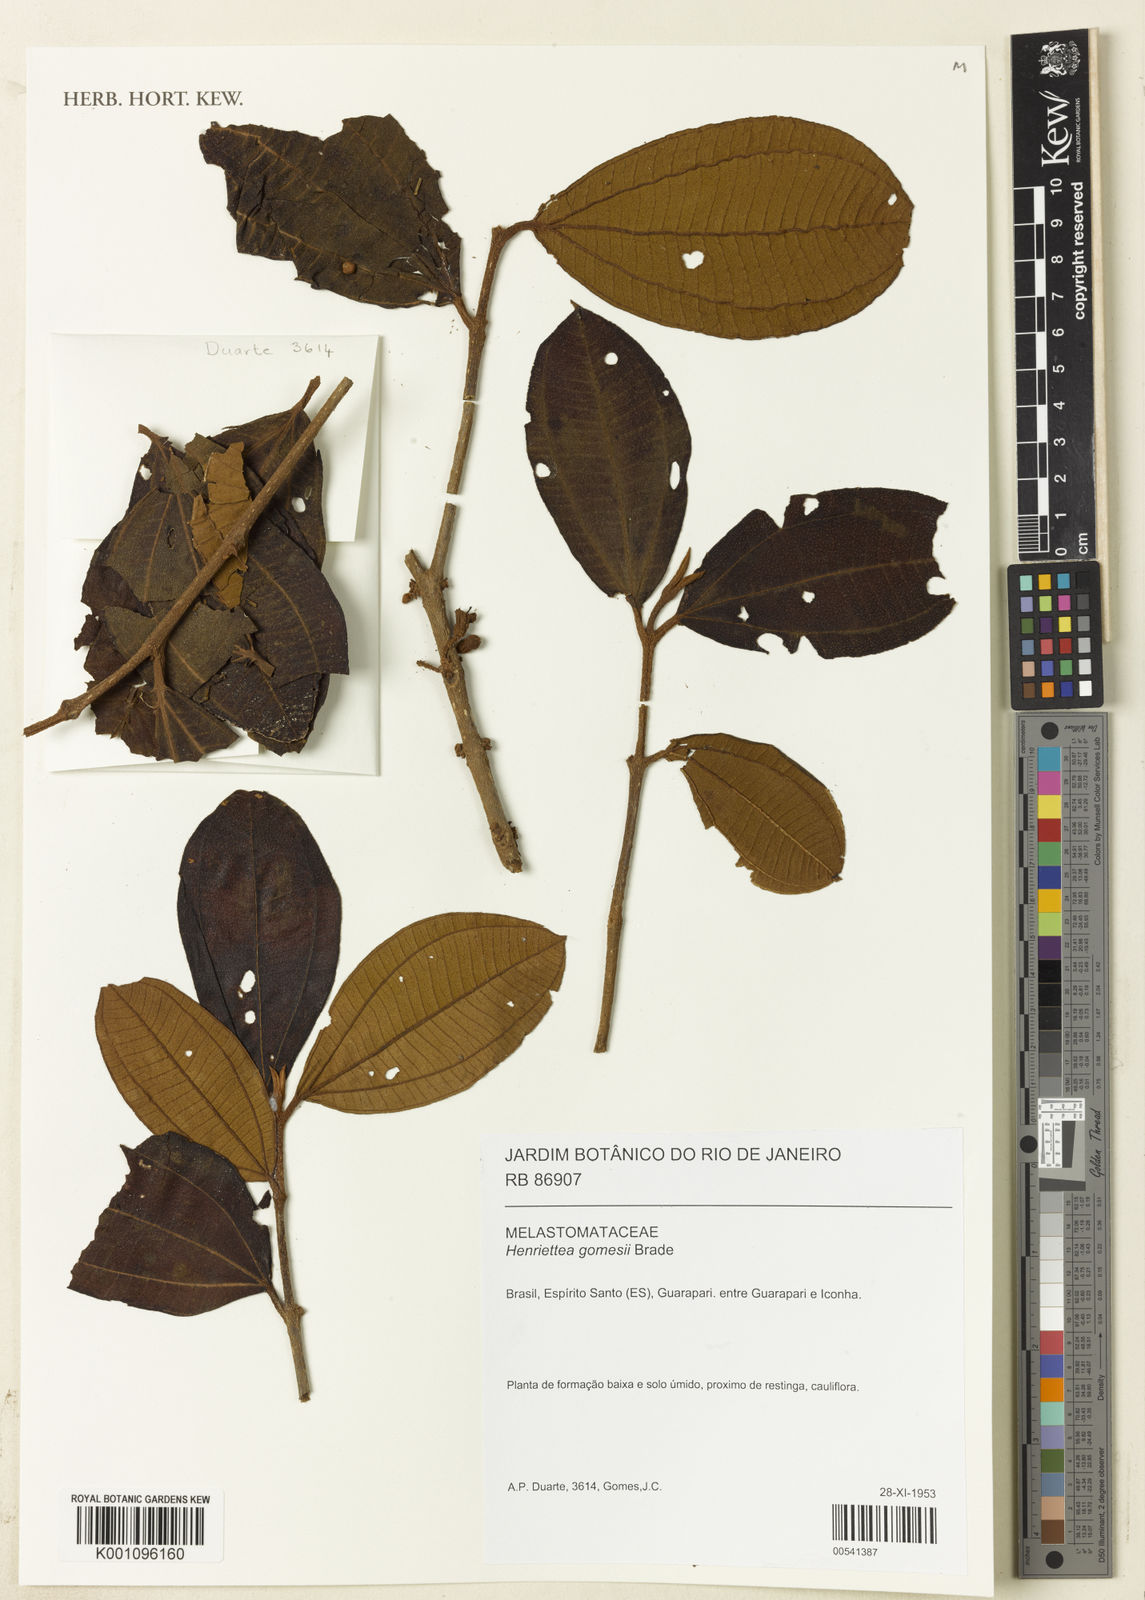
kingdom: Plantae
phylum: Tracheophyta
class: Magnoliopsida
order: Myrtales
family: Melastomataceae
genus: Henriettea
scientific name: Henriettea gomesii
